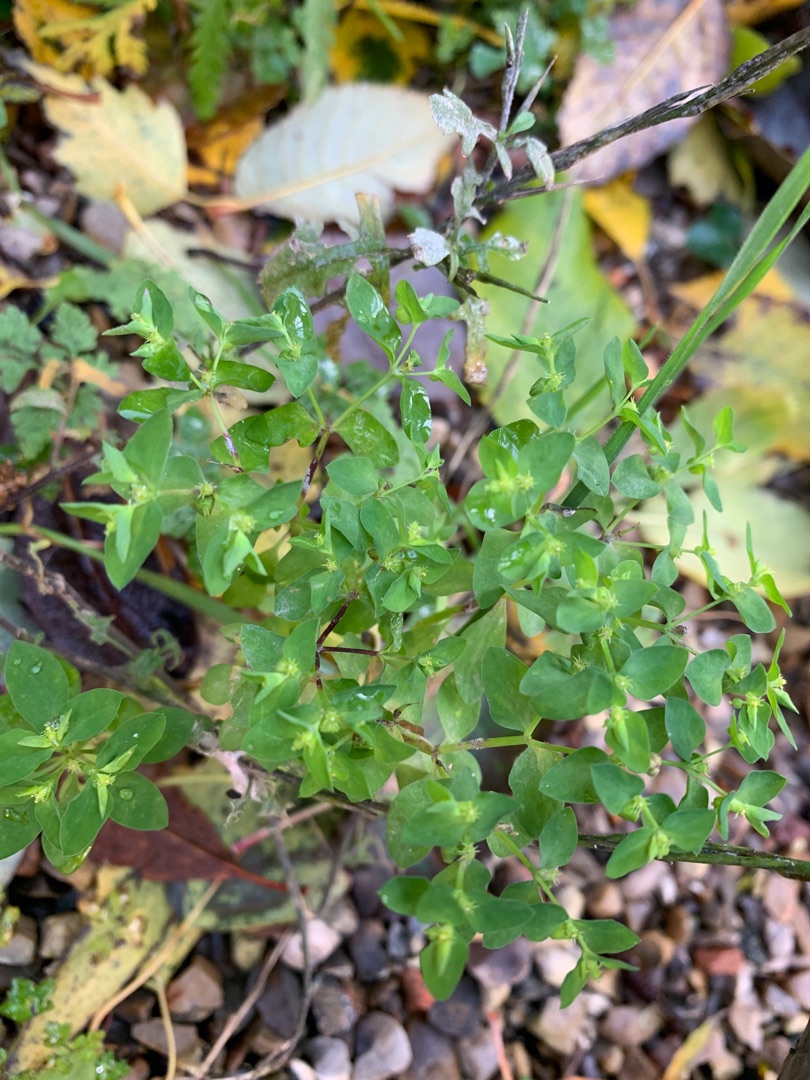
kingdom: Plantae
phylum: Tracheophyta
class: Magnoliopsida
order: Malpighiales
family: Euphorbiaceae
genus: Euphorbia
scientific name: Euphorbia peplus
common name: Gaffel-vortemælk
